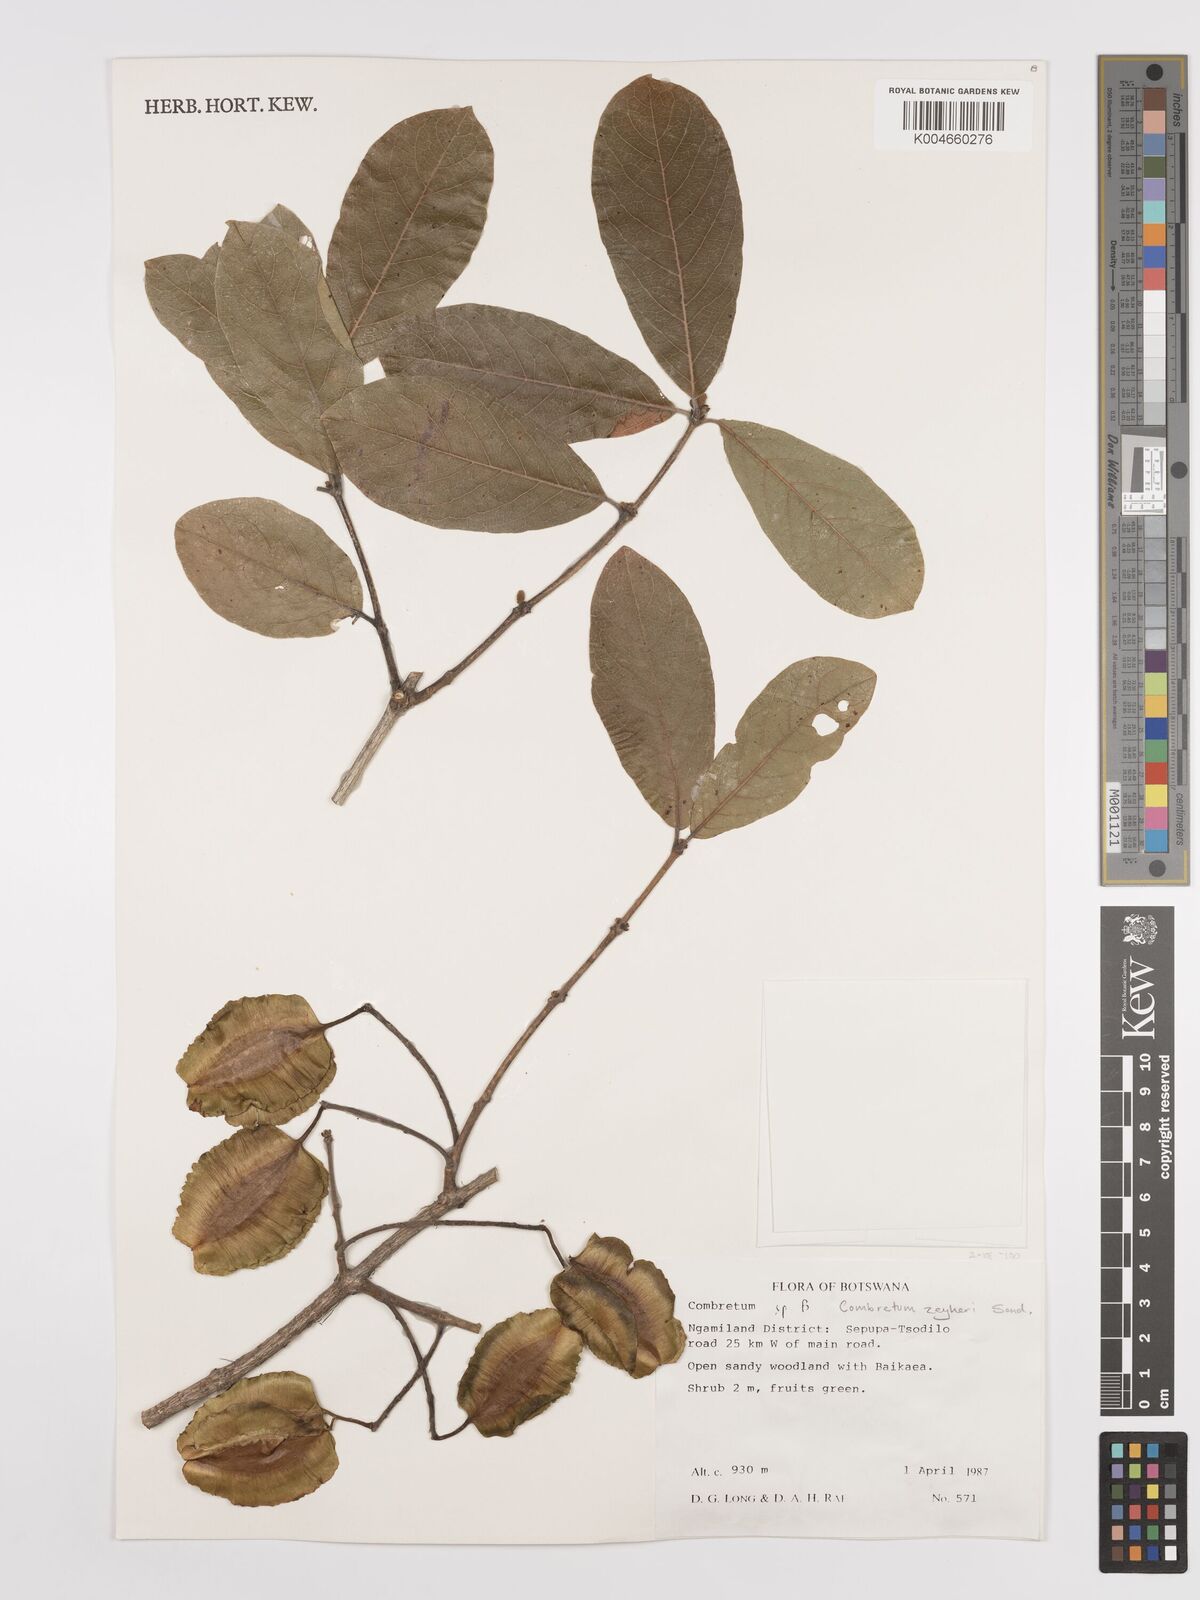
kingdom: Plantae
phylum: Tracheophyta
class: Magnoliopsida
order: Myrtales
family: Combretaceae
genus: Combretum
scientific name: Combretum zeyheri
